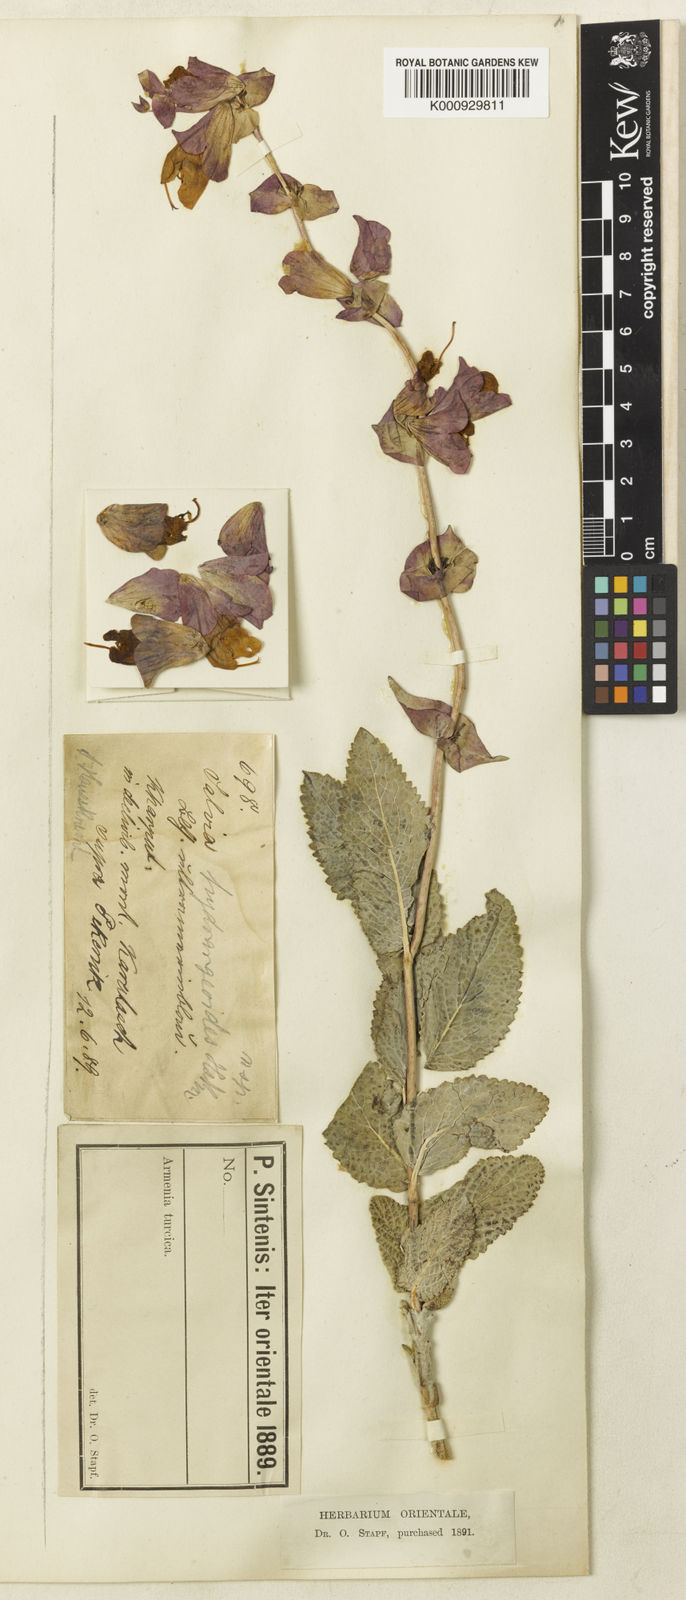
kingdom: Plantae
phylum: Tracheophyta
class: Magnoliopsida
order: Lamiales
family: Lamiaceae
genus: Salvia
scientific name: Salvia hydrangea
